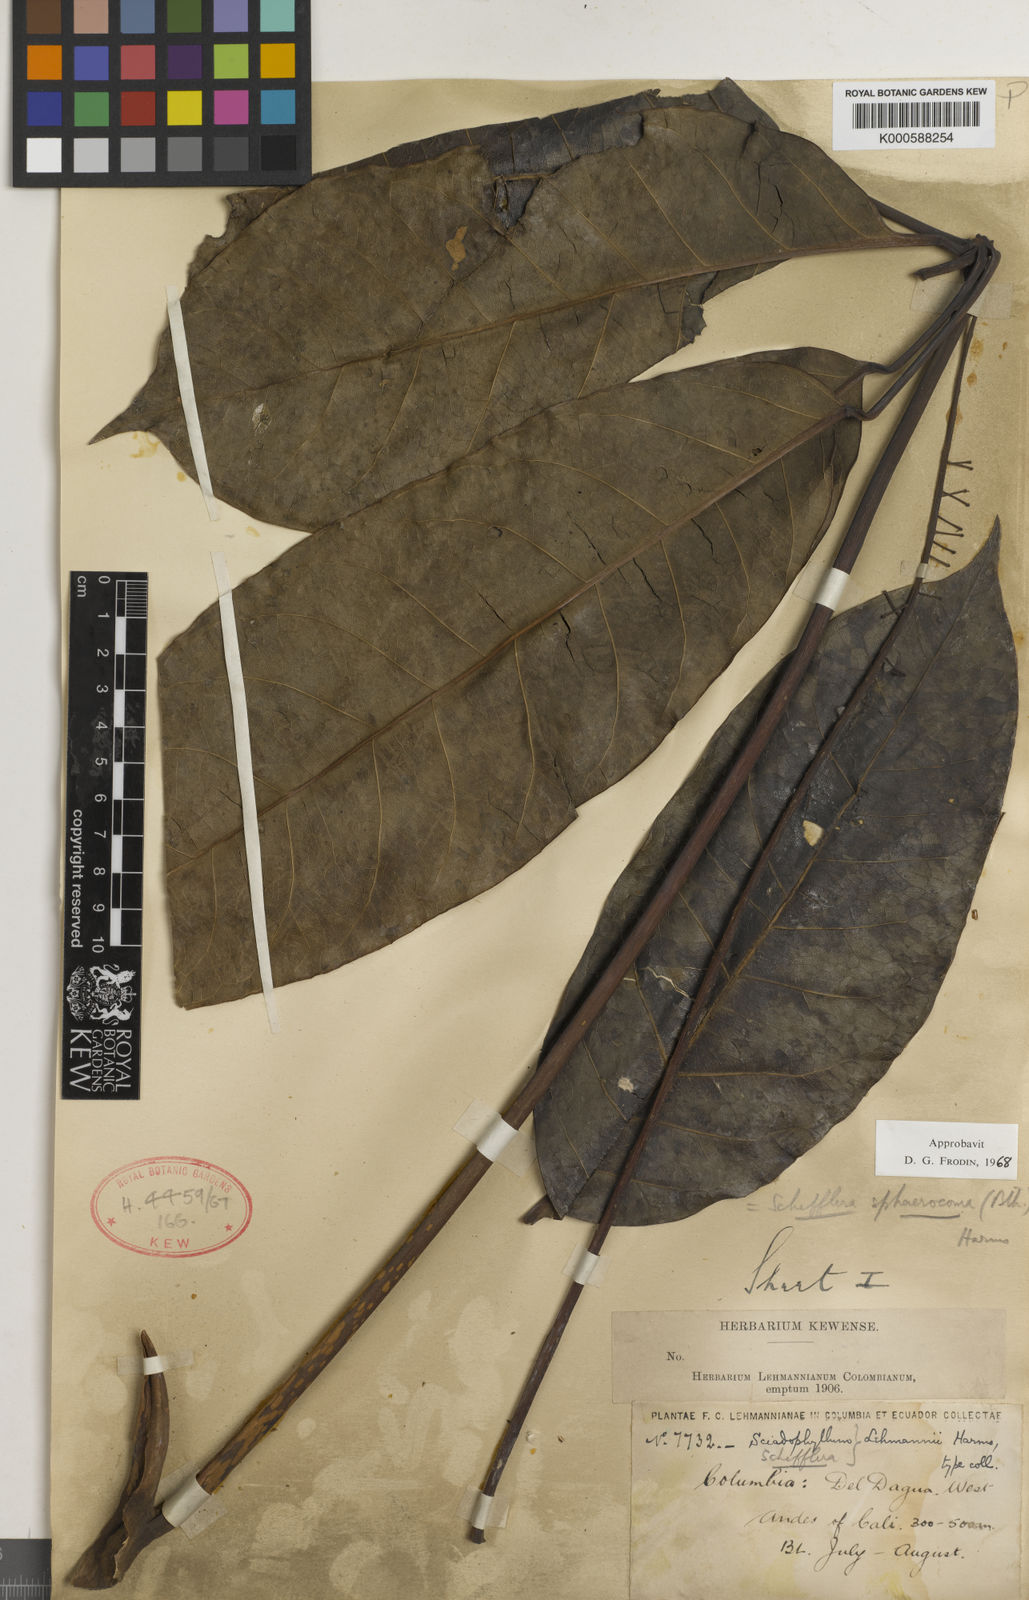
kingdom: Plantae
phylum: Tracheophyta
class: Magnoliopsida
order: Apiales
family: Araliaceae
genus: Sciodaphyllum
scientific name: Sciodaphyllum sphaerocoma
